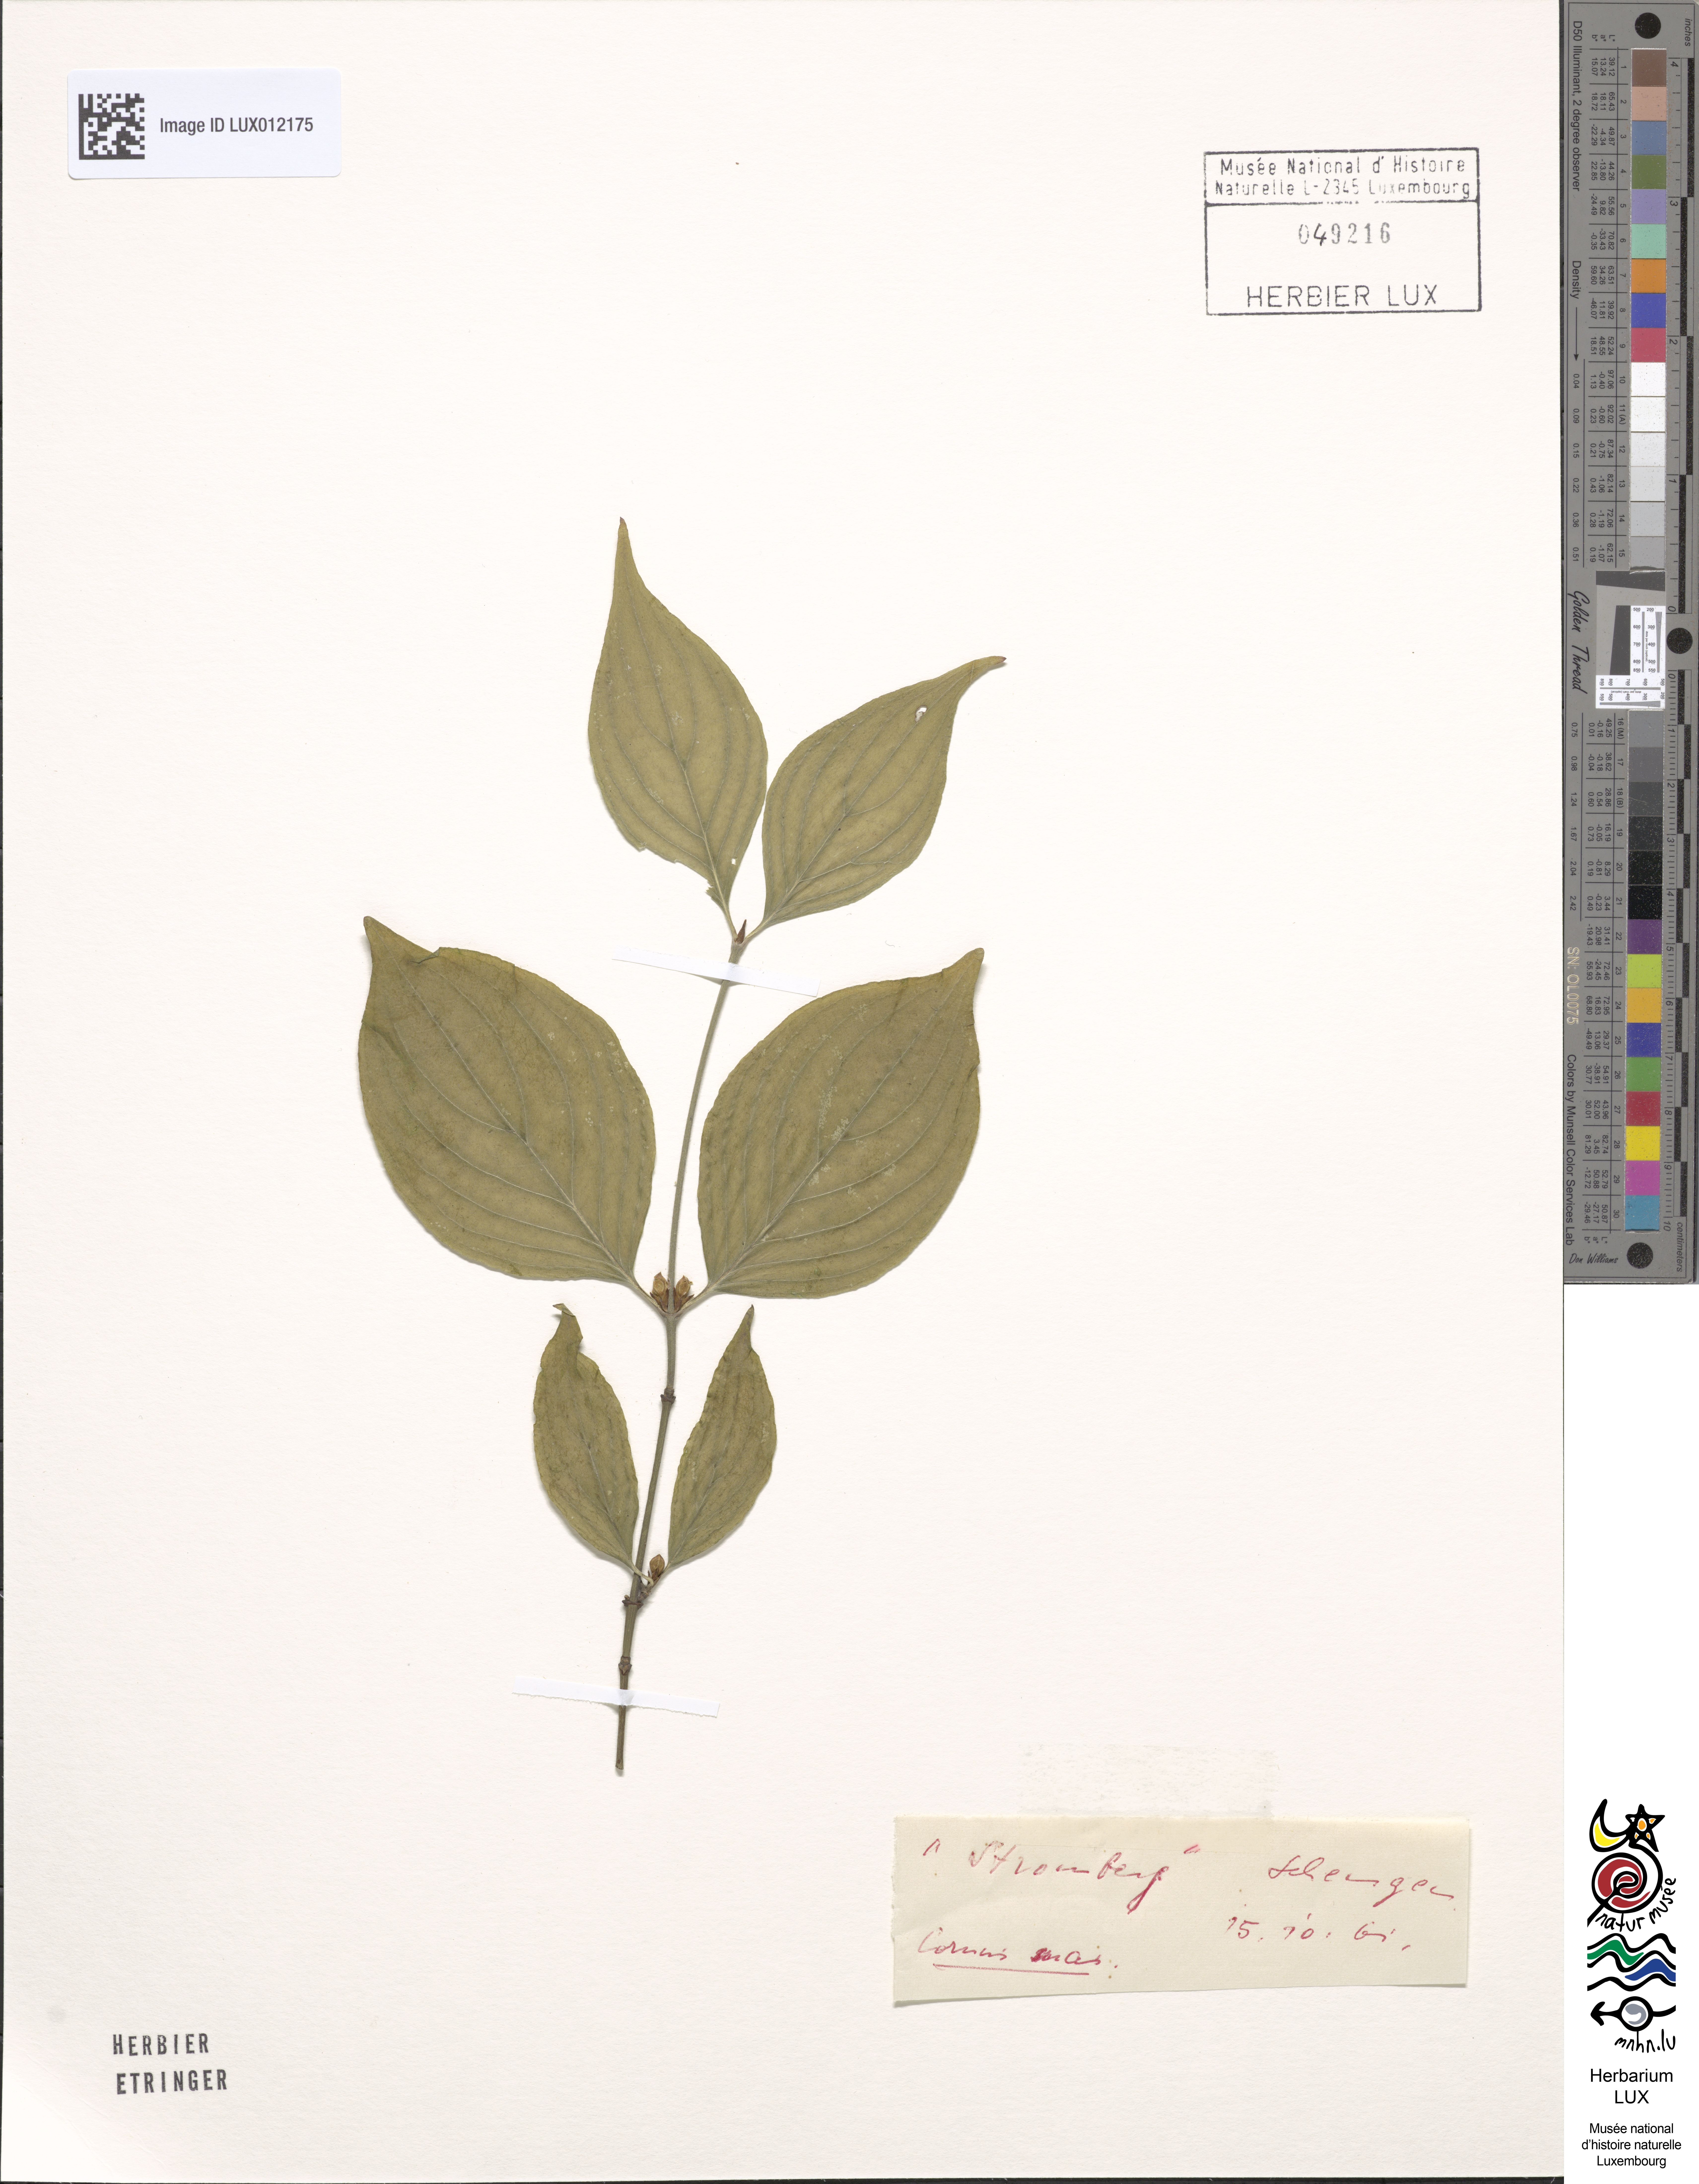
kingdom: Plantae
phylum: Tracheophyta
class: Magnoliopsida
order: Cornales
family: Cornaceae
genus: Cornus
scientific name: Cornus mas
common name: Cornelian-cherry
